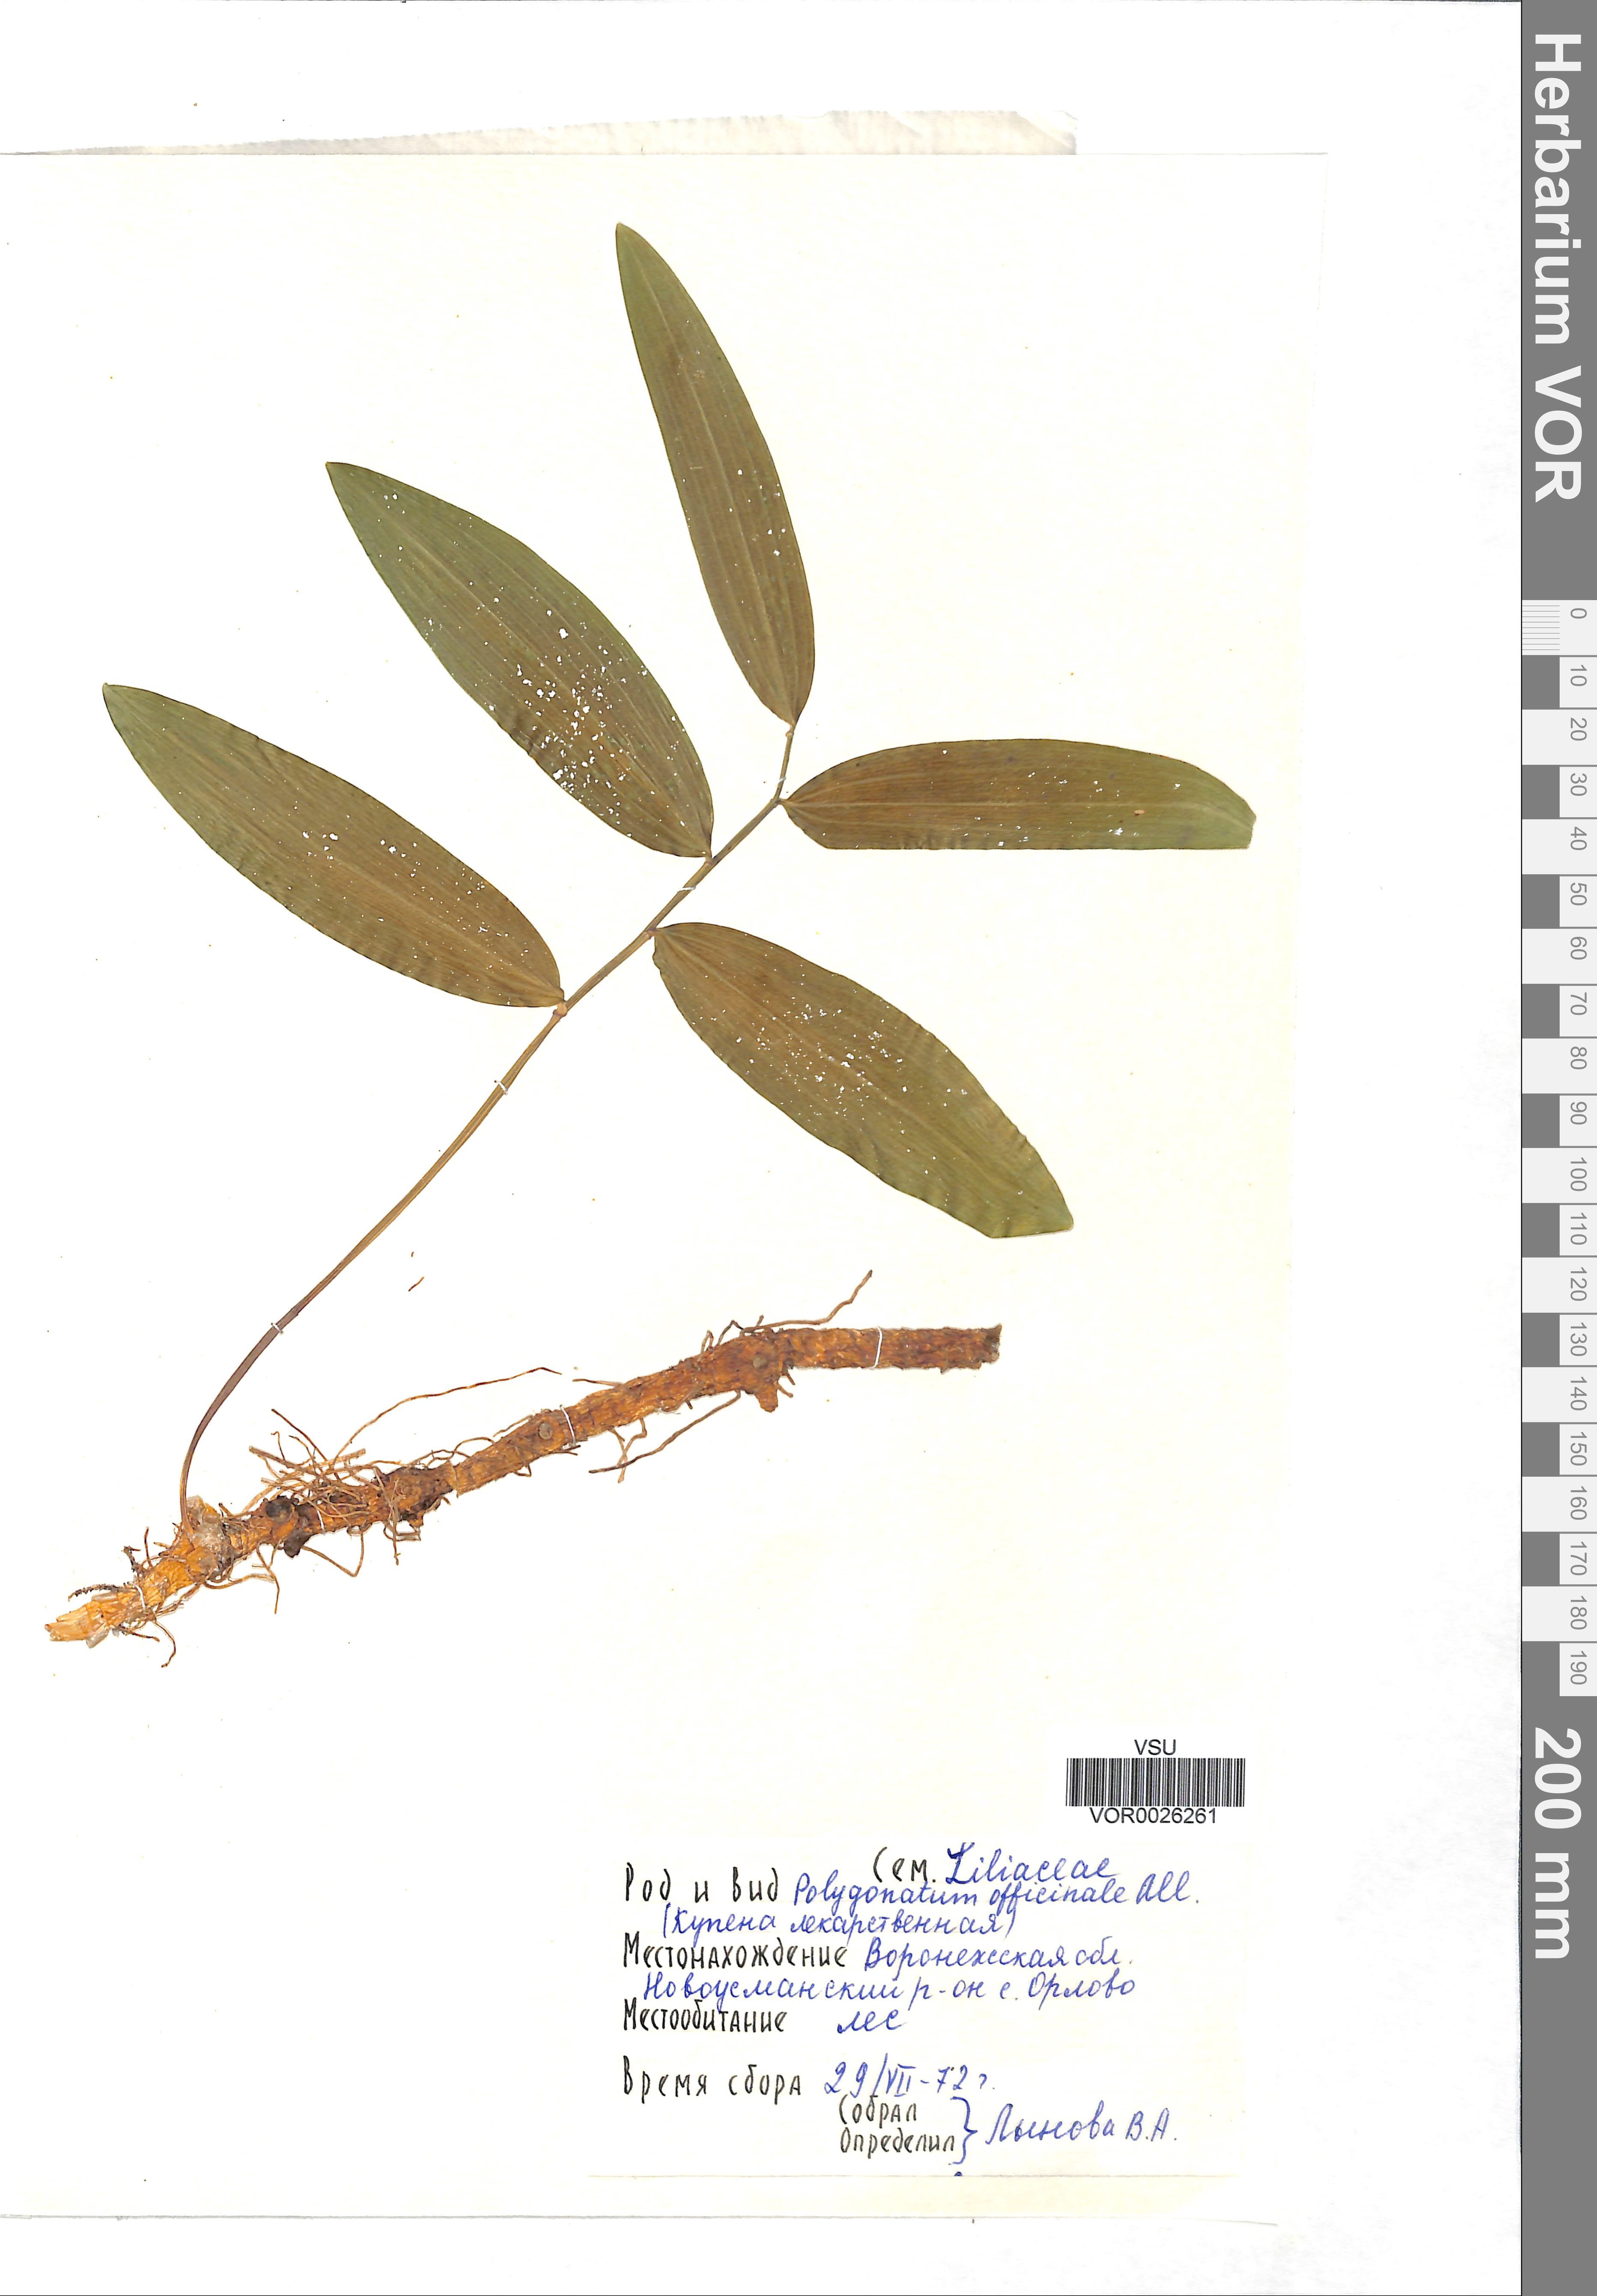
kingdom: Plantae
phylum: Tracheophyta
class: Liliopsida
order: Asparagales
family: Asparagaceae
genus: Polygonatum
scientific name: Polygonatum odoratum
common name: Angular solomon's-seal
